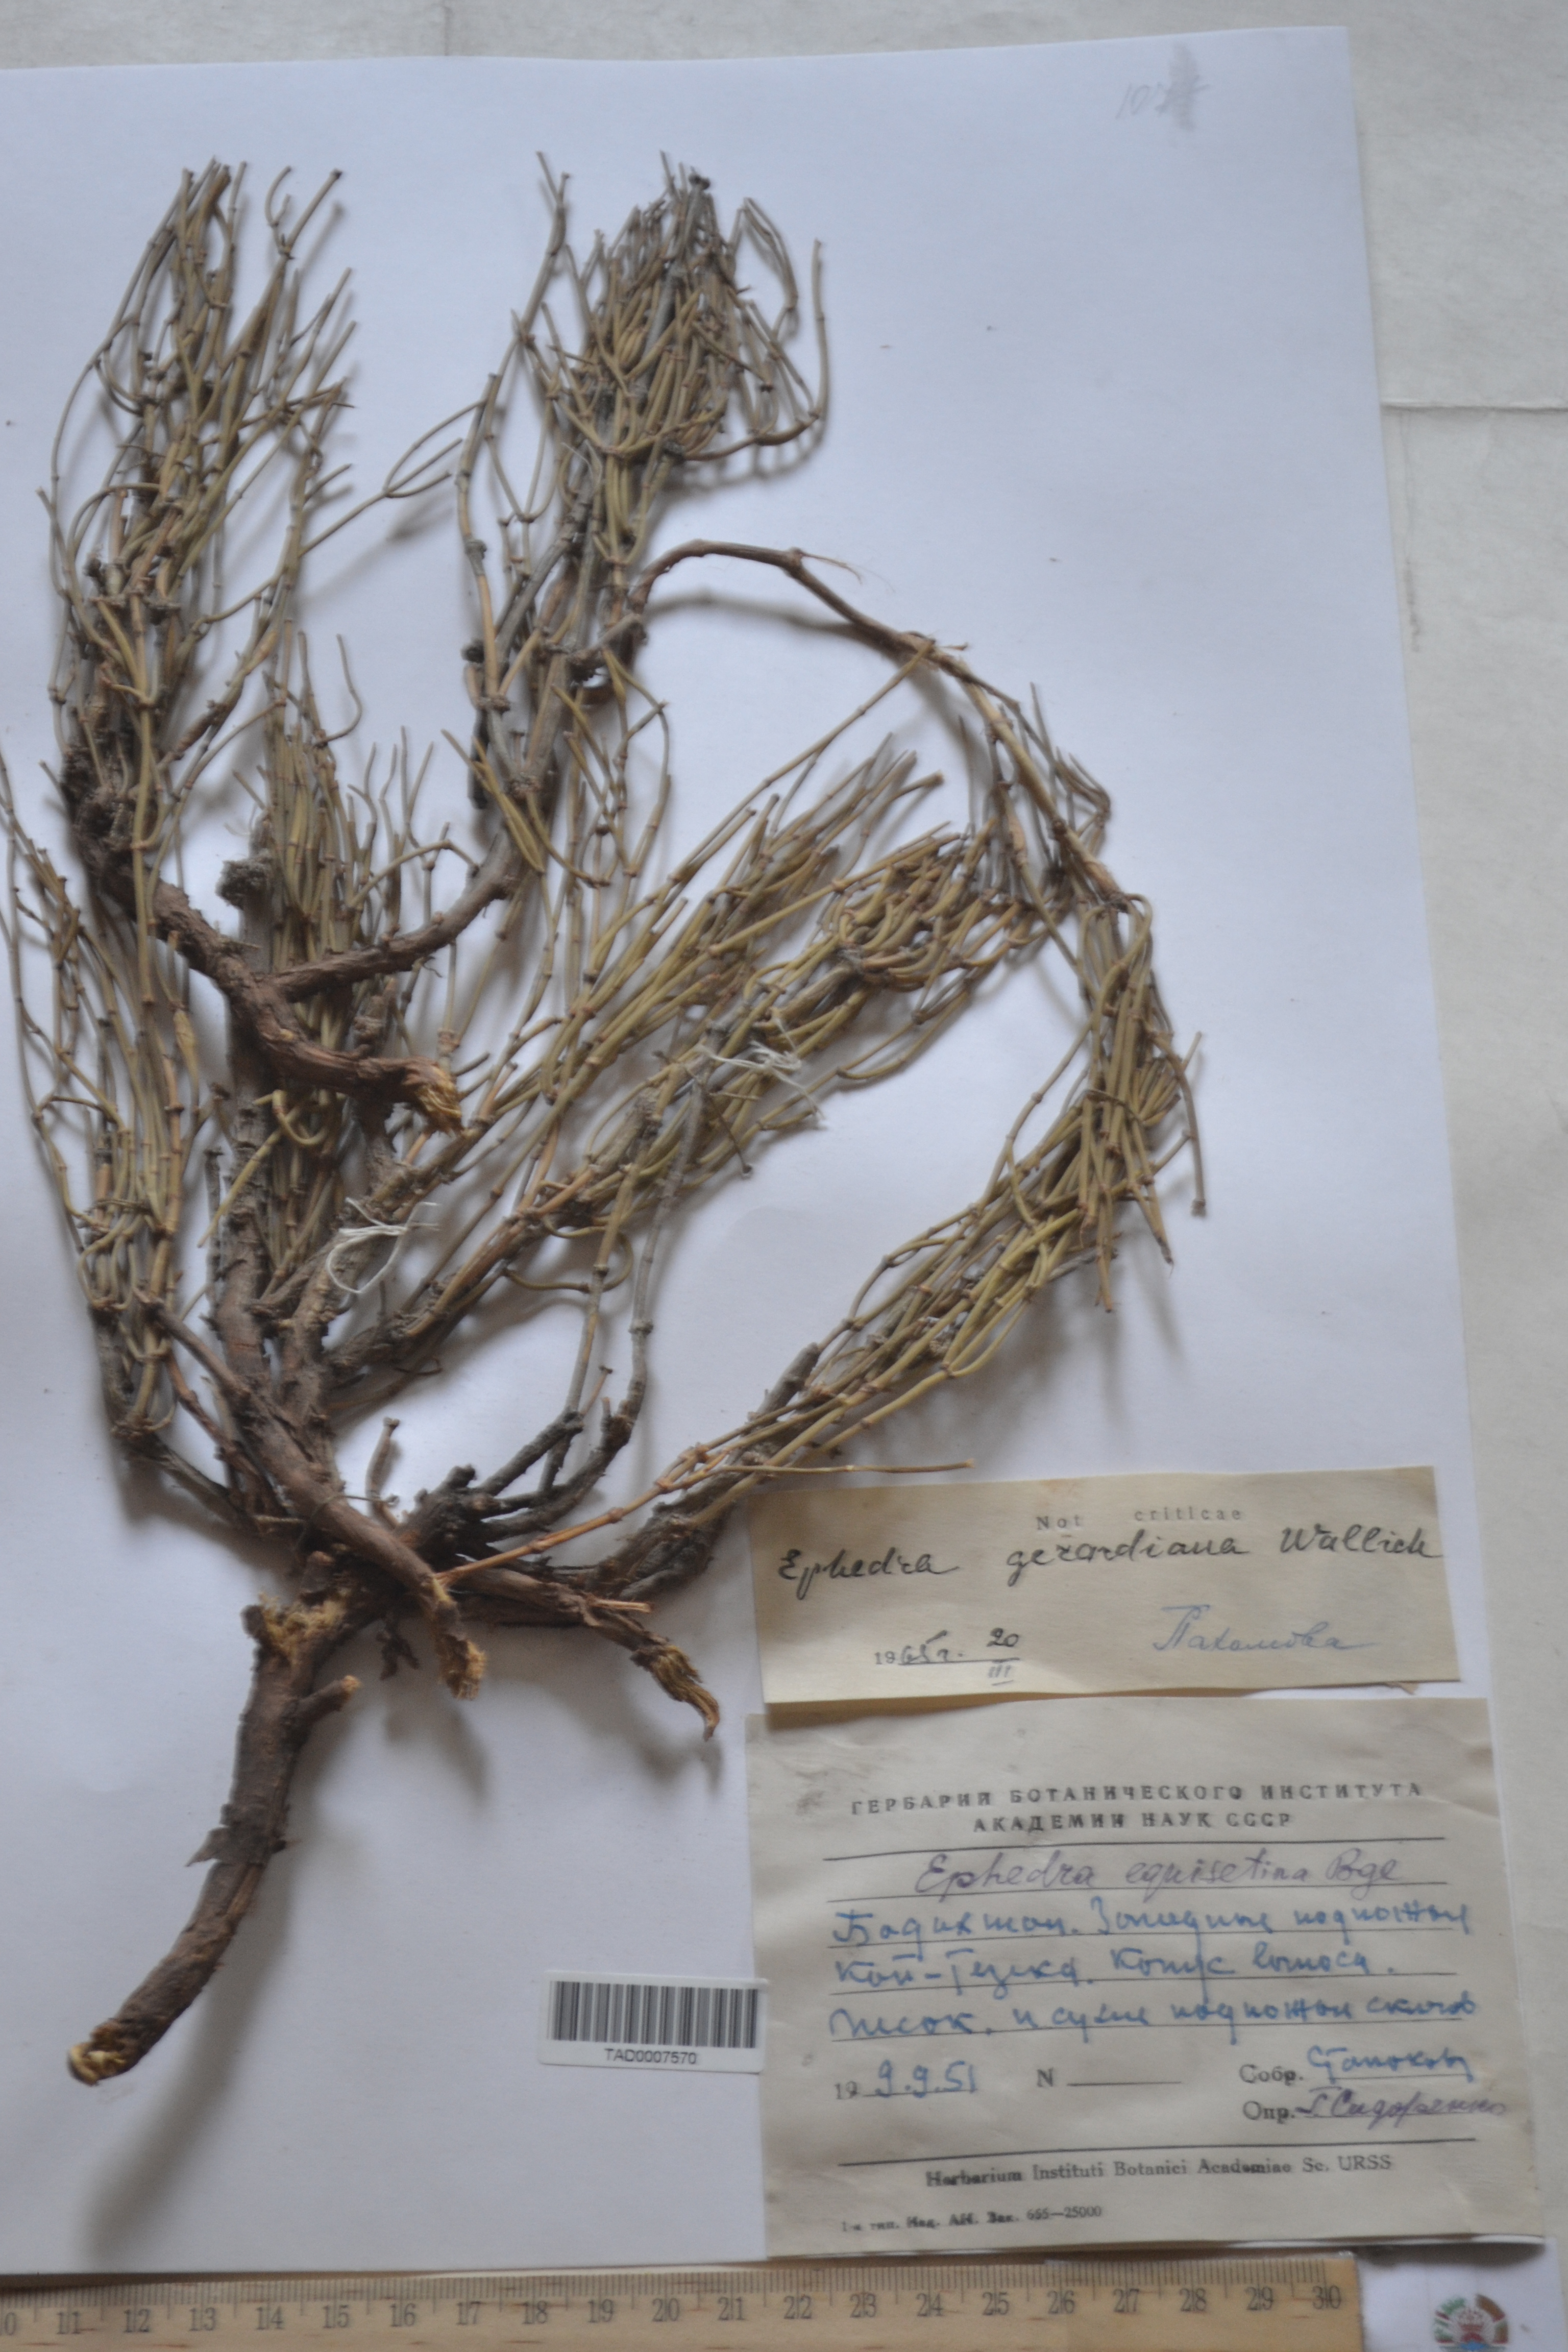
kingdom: Plantae
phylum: Tracheophyta
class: Gnetopsida
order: Ephedrales
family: Ephedraceae
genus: Ephedra
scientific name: Ephedra gerardiana
